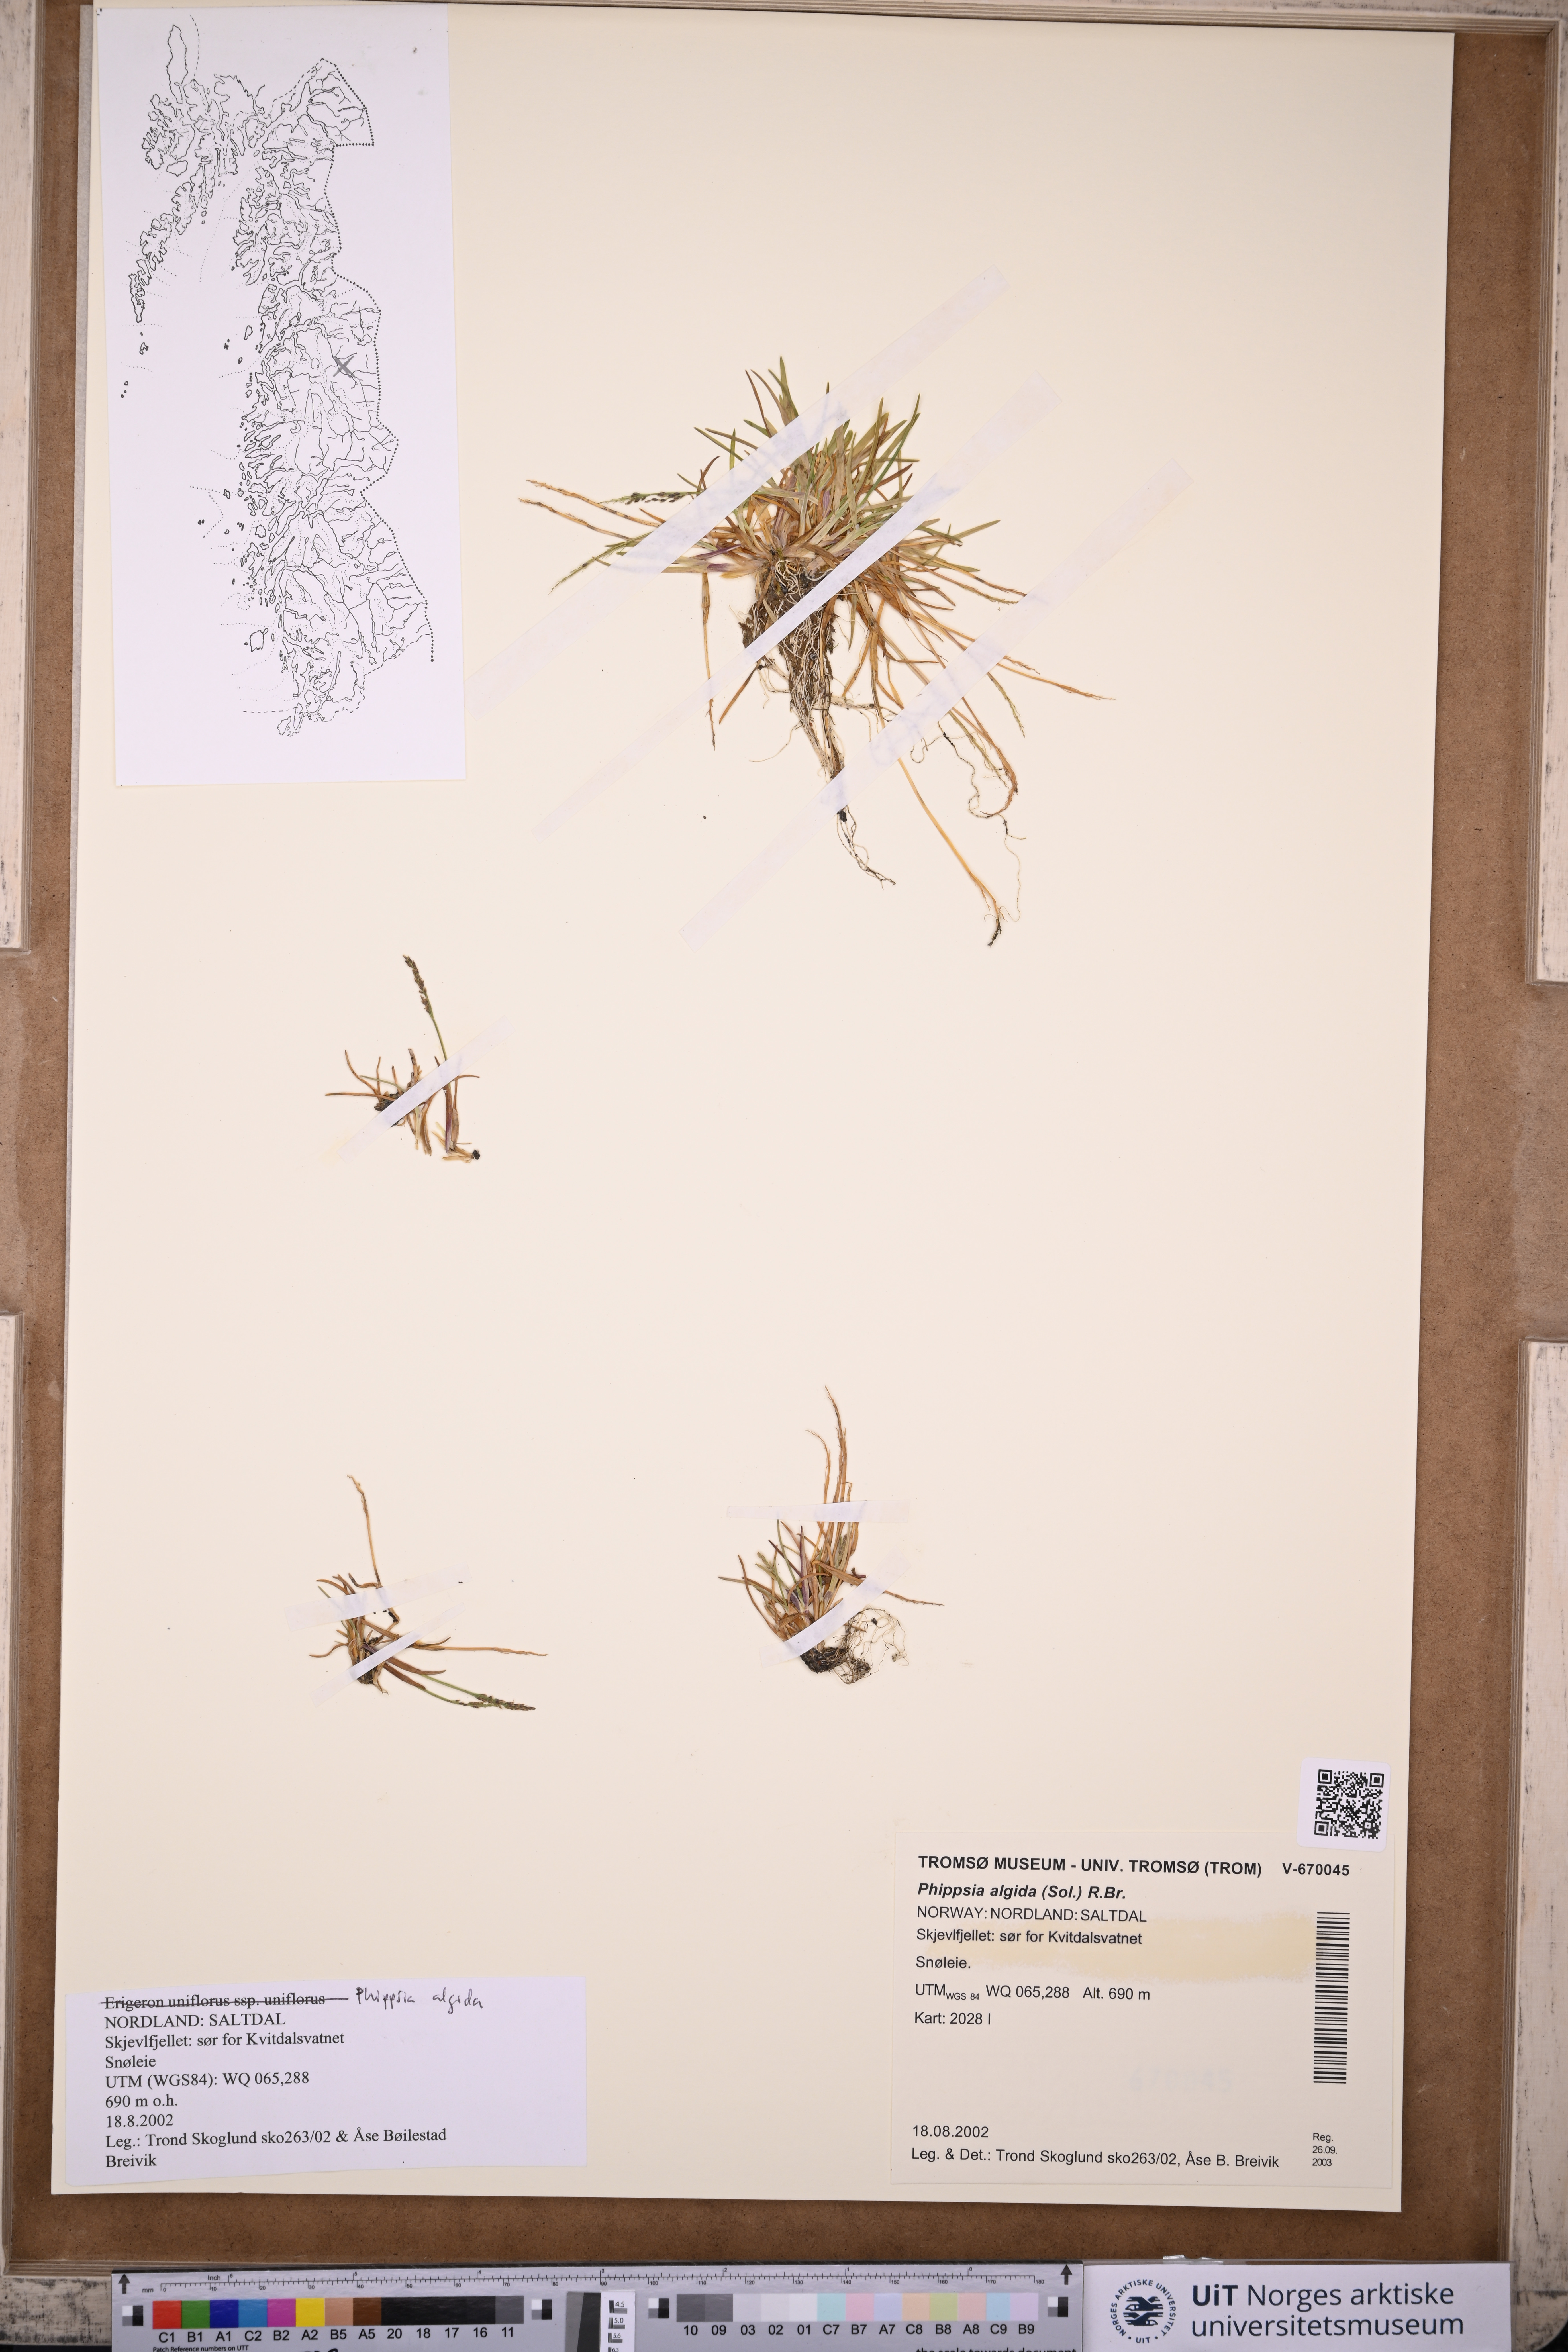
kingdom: Plantae
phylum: Tracheophyta
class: Liliopsida
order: Poales
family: Poaceae
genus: Phippsia
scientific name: Phippsia algida
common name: Ice grass
